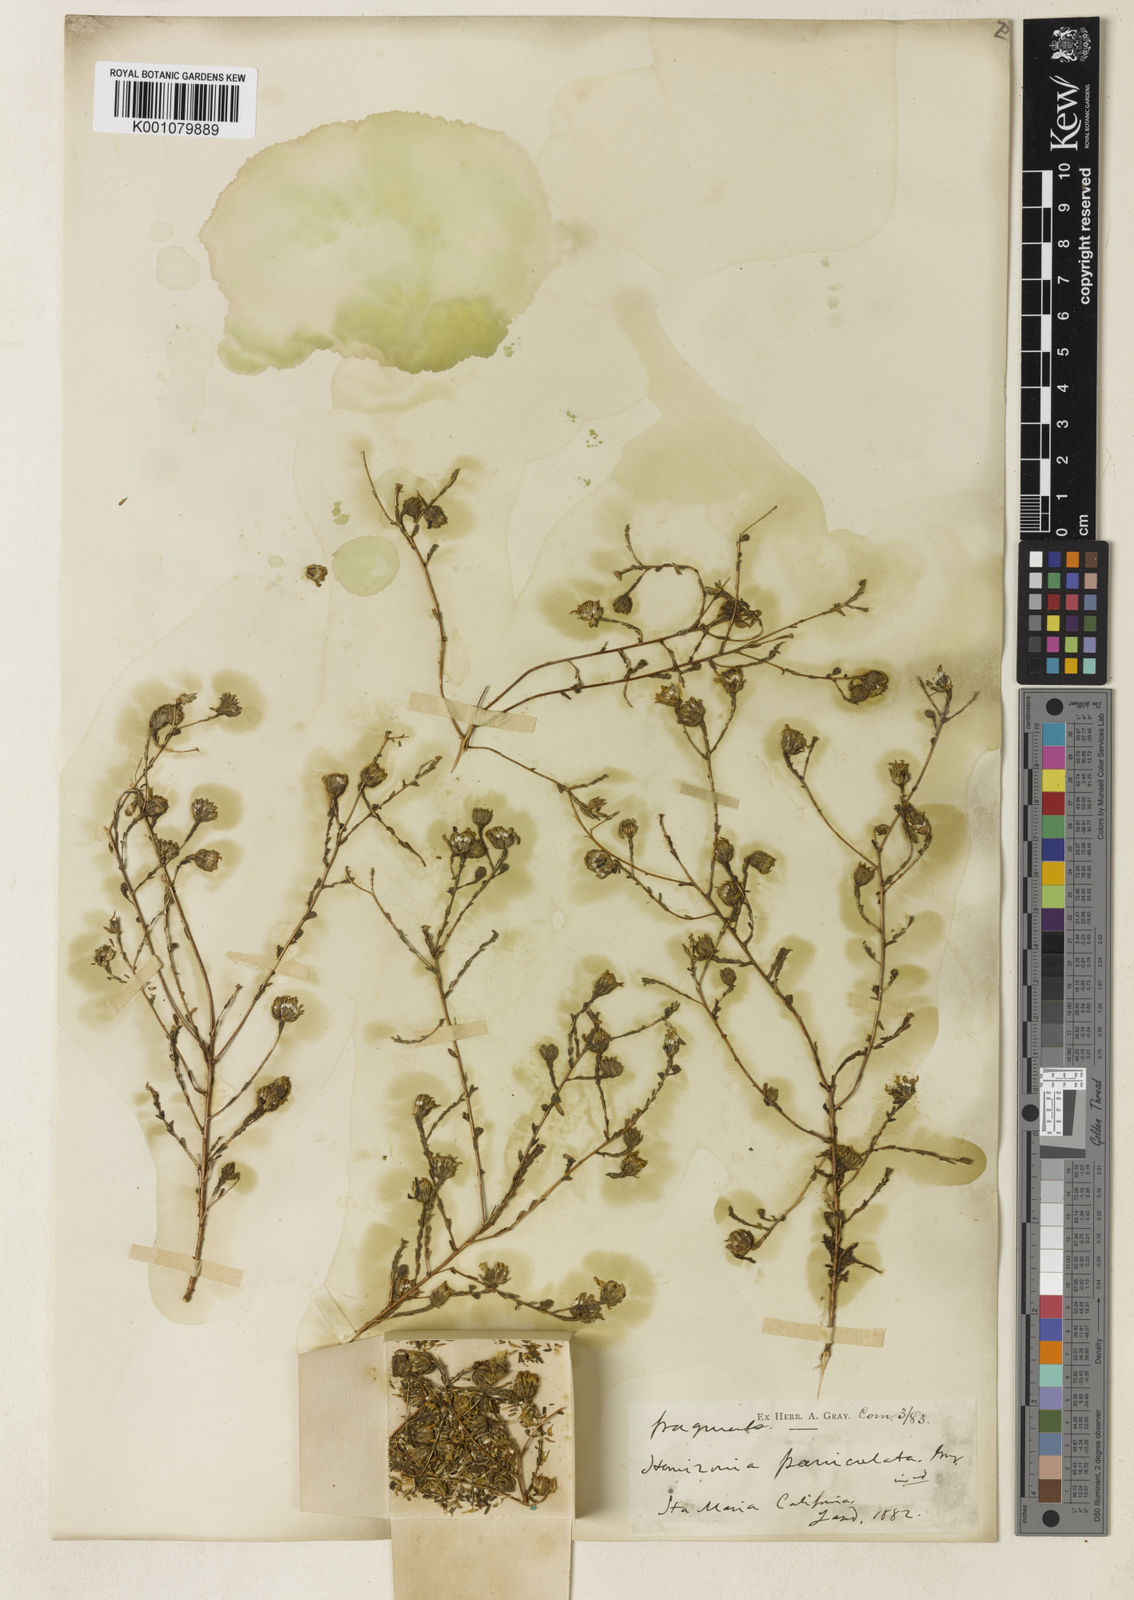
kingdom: Plantae
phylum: Tracheophyta
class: Magnoliopsida
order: Asterales
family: Asteraceae
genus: Deinandra
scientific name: Deinandra paniculata
